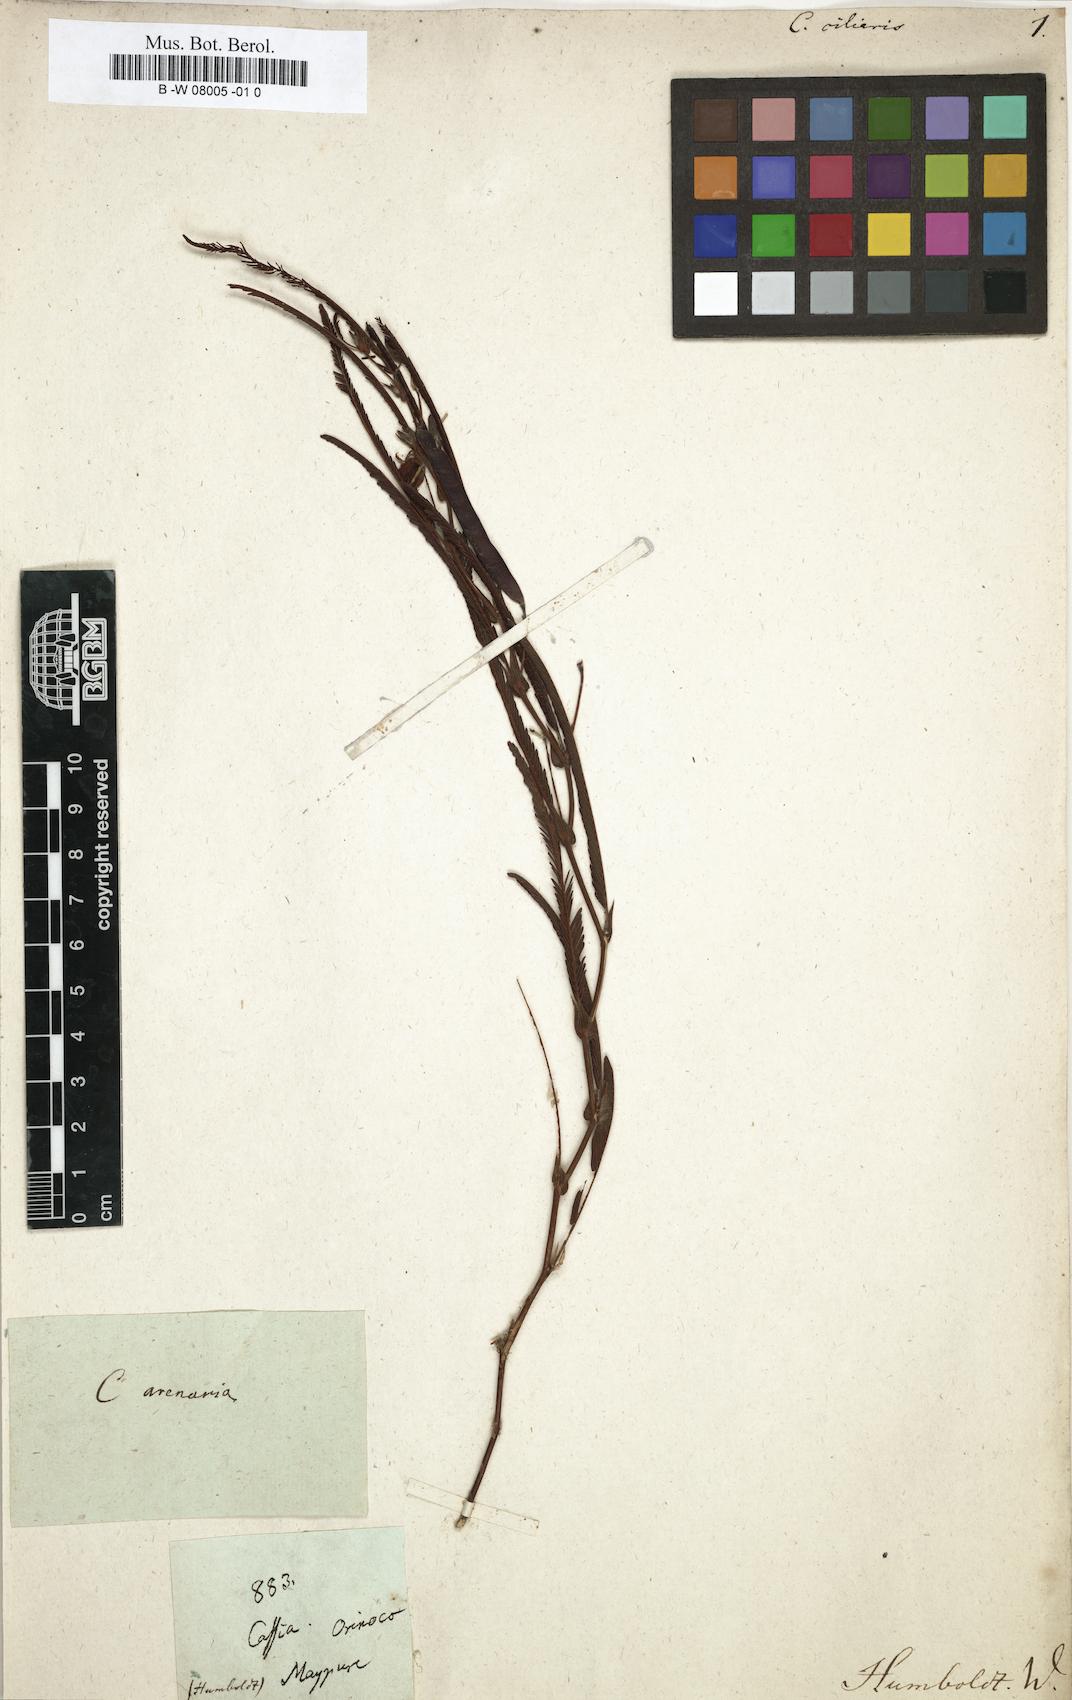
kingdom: Plantae
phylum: Tracheophyta
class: Magnoliopsida
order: Fabales
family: Fabaceae
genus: Chamaecrista
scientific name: Chamaecrista kunthiana
